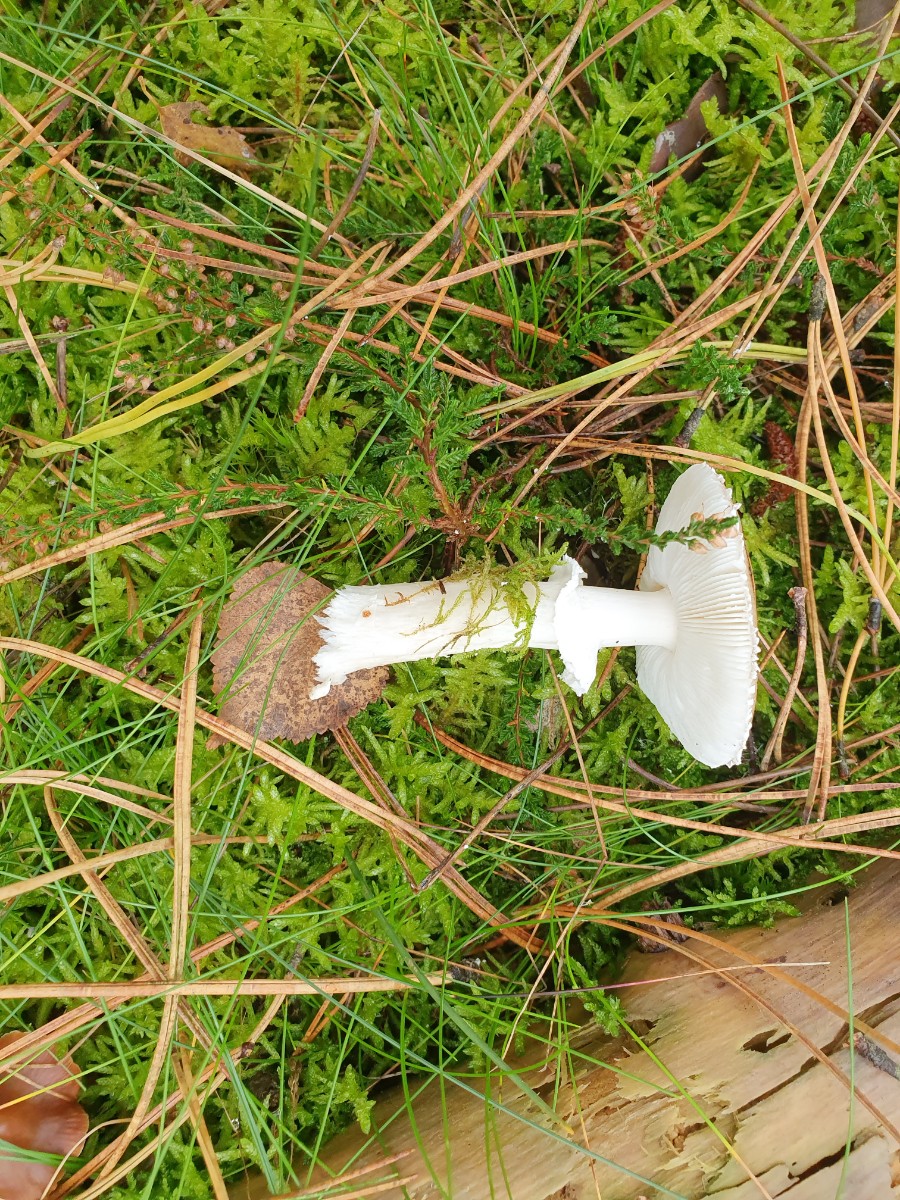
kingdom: Fungi
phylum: Basidiomycota
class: Agaricomycetes
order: Agaricales
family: Amanitaceae
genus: Amanita
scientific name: Amanita porphyria
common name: porfyr-fluesvamp
